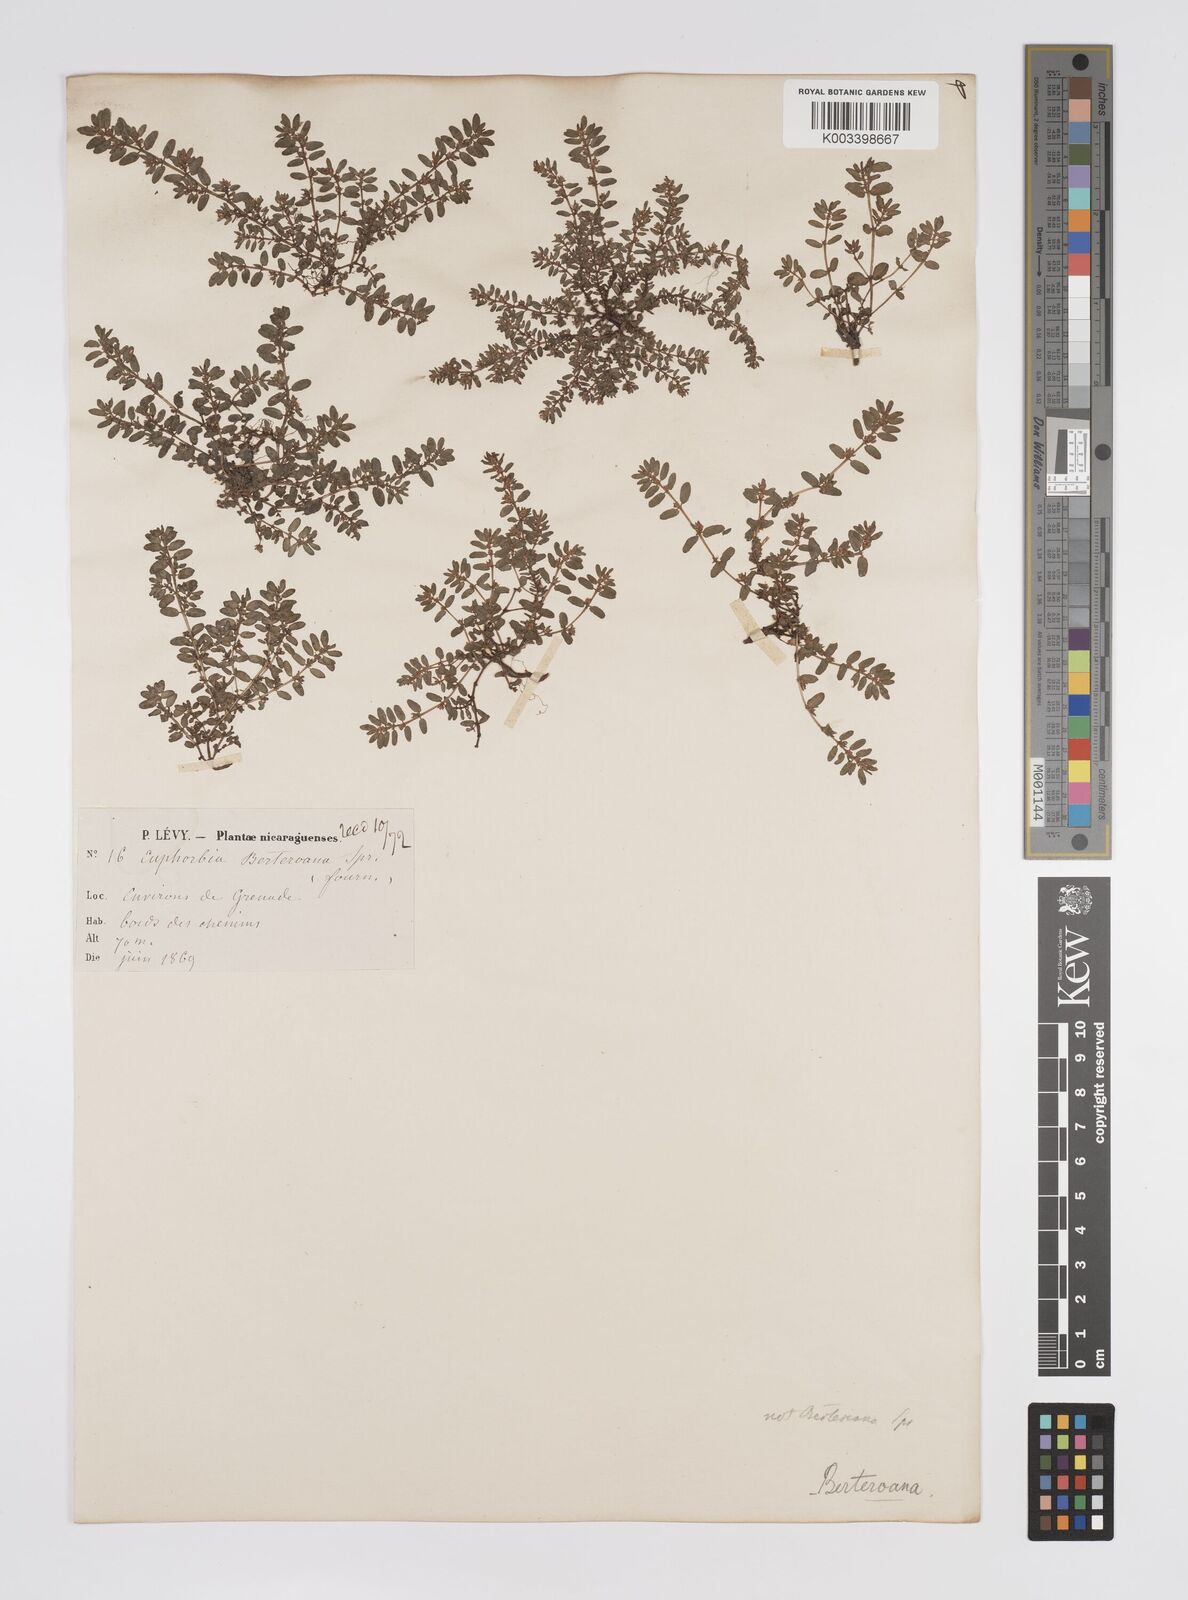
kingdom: Plantae
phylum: Tracheophyta
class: Magnoliopsida
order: Malpighiales
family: Euphorbiaceae
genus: Euphorbia
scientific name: Euphorbia berteroana
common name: Bertero's sandmat
